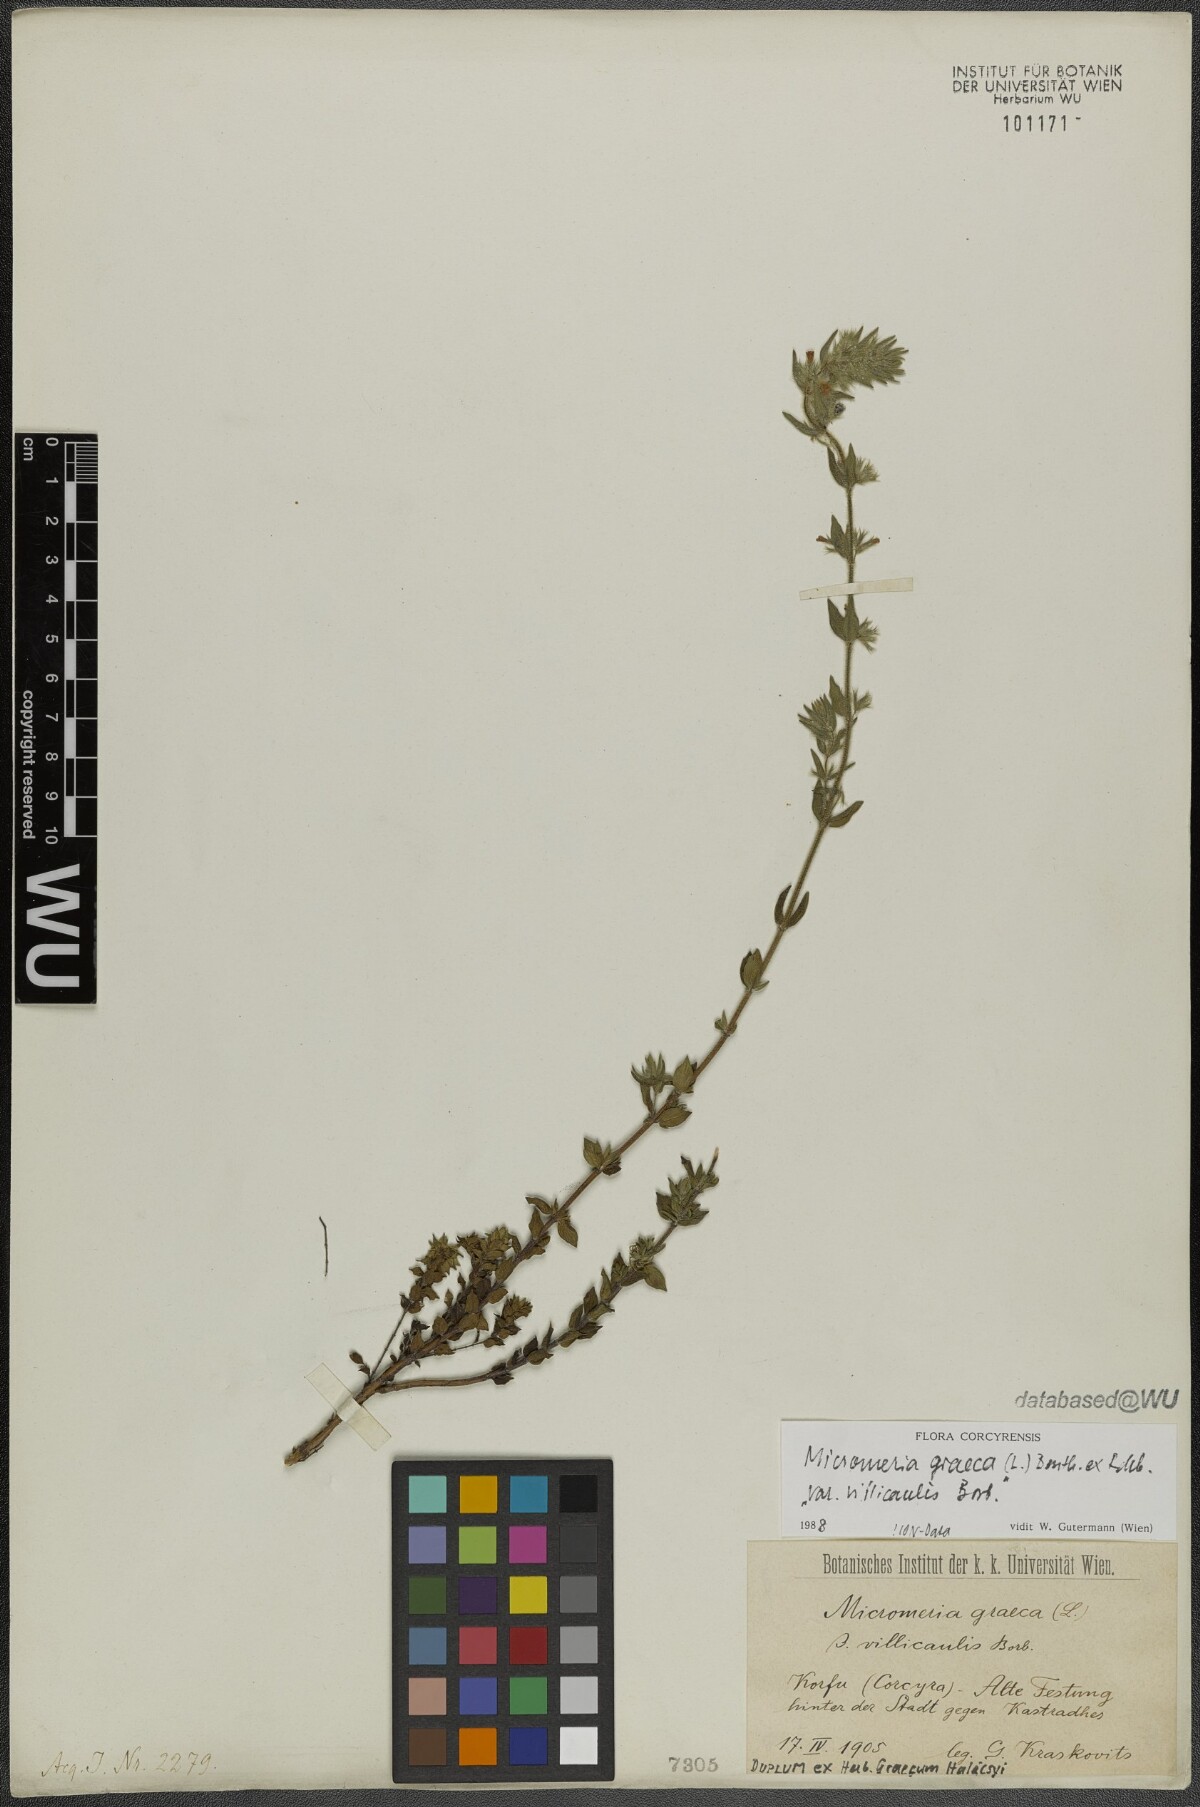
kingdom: Plantae
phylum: Tracheophyta
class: Magnoliopsida
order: Lamiales
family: Lamiaceae
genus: Micromeria
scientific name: Micromeria graeca
